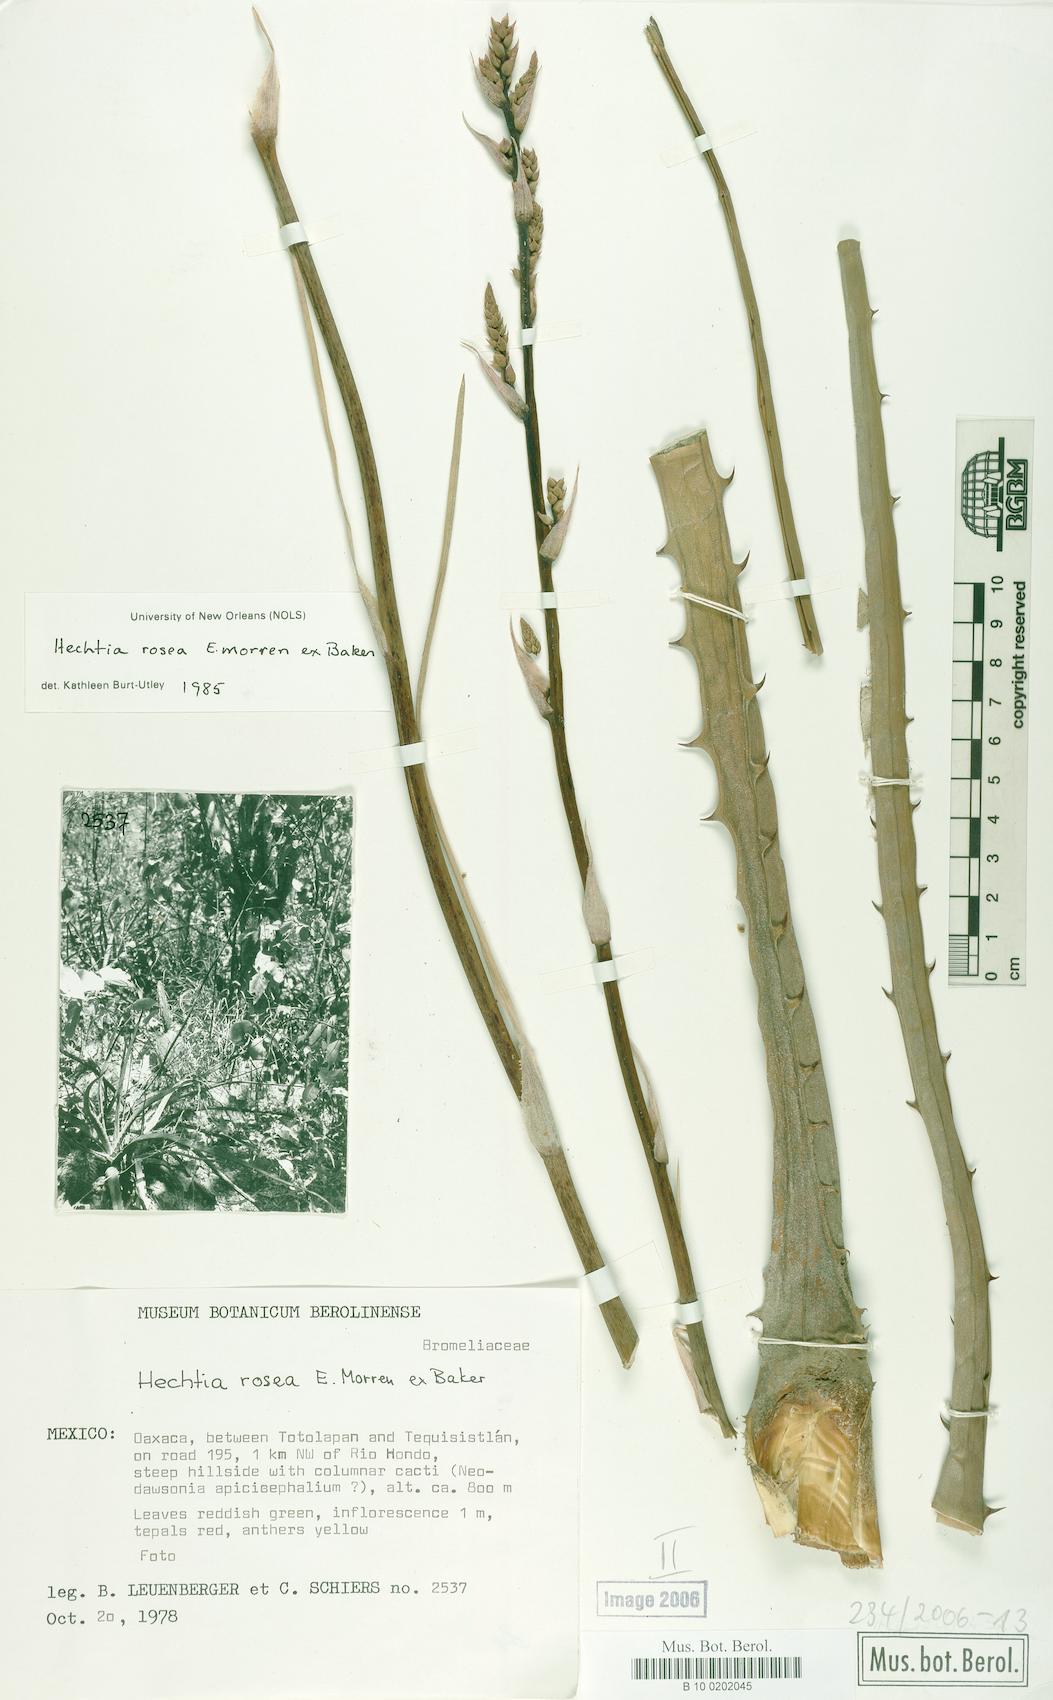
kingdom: Plantae
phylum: Tracheophyta
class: Liliopsida
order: Poales
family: Bromeliaceae
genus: Hechtia
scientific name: Hechtia rosea
